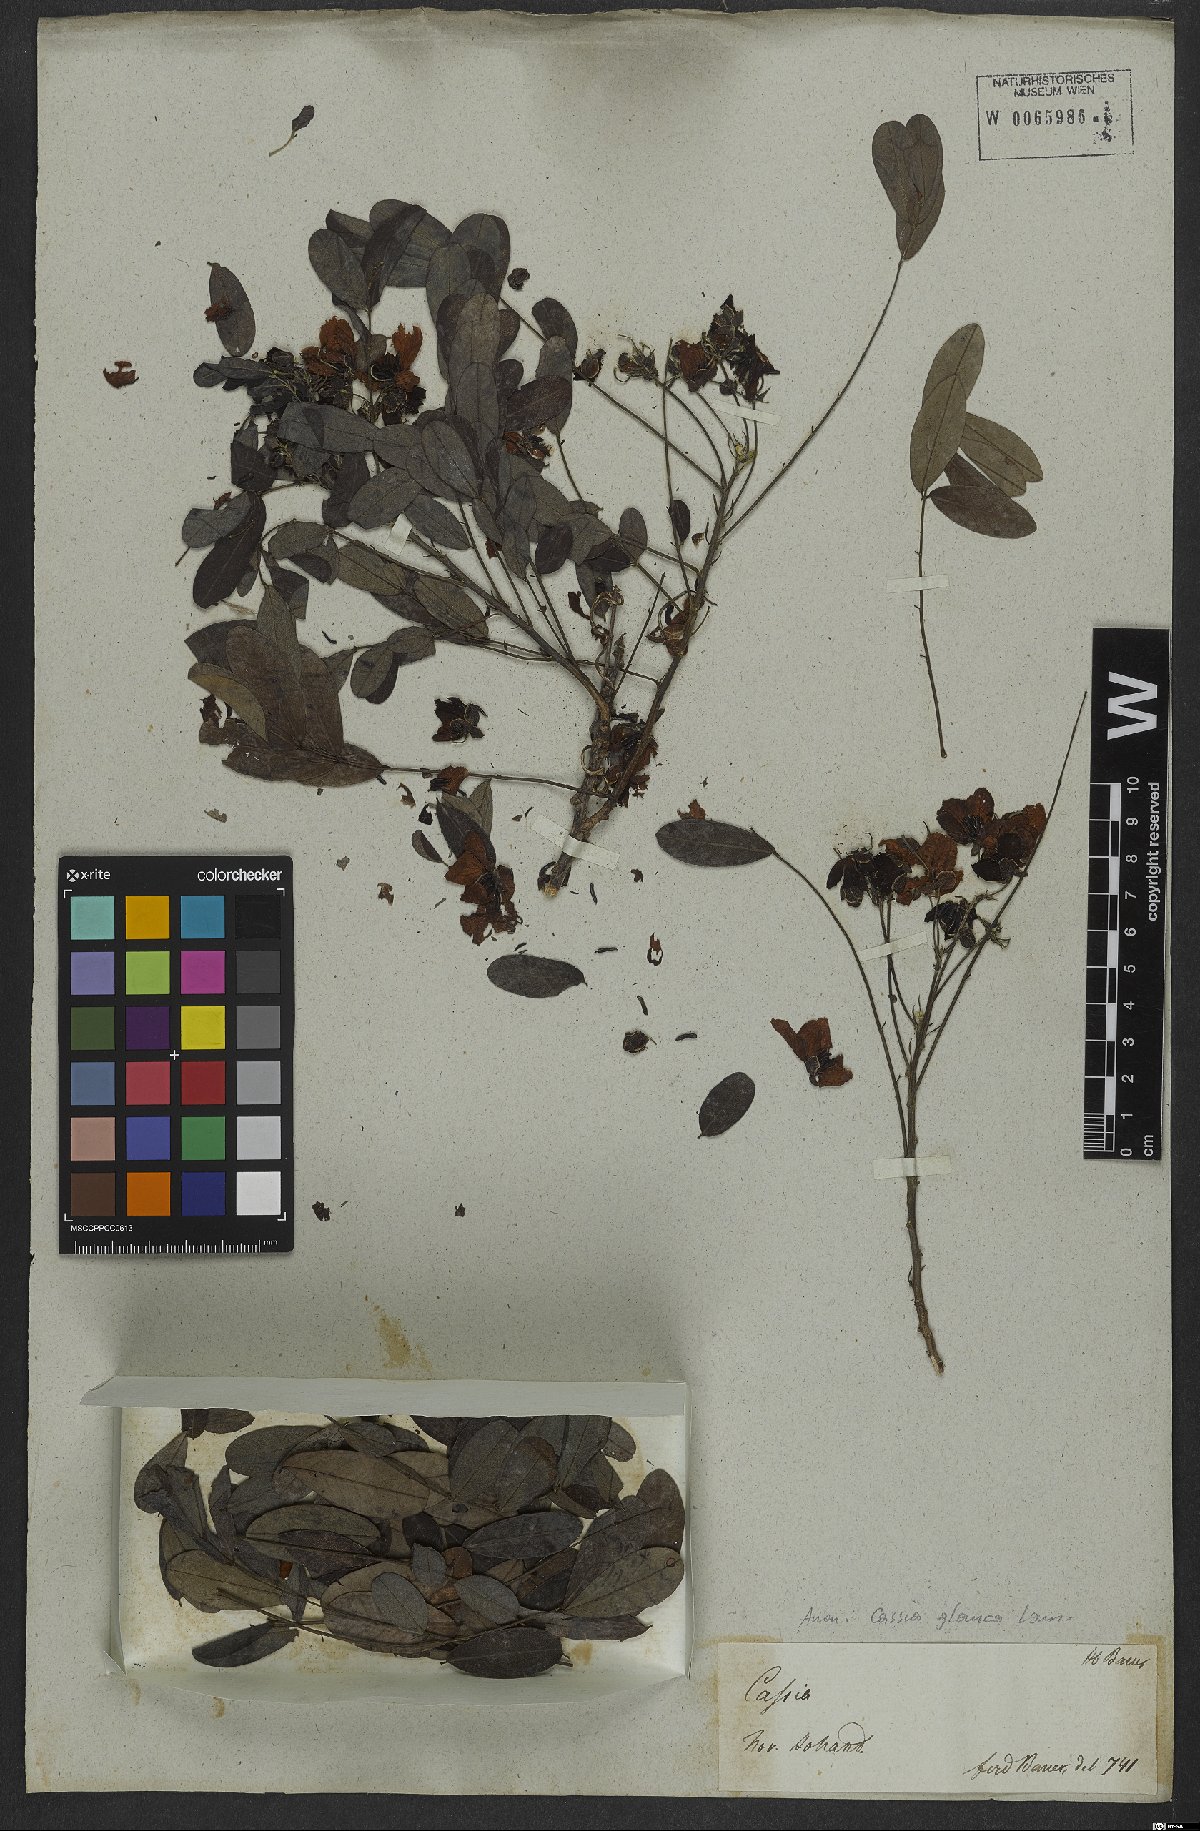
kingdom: Plantae
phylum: Tracheophyta
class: Magnoliopsida
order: Fabales
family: Fabaceae
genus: Senna
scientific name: Senna sulfurea
